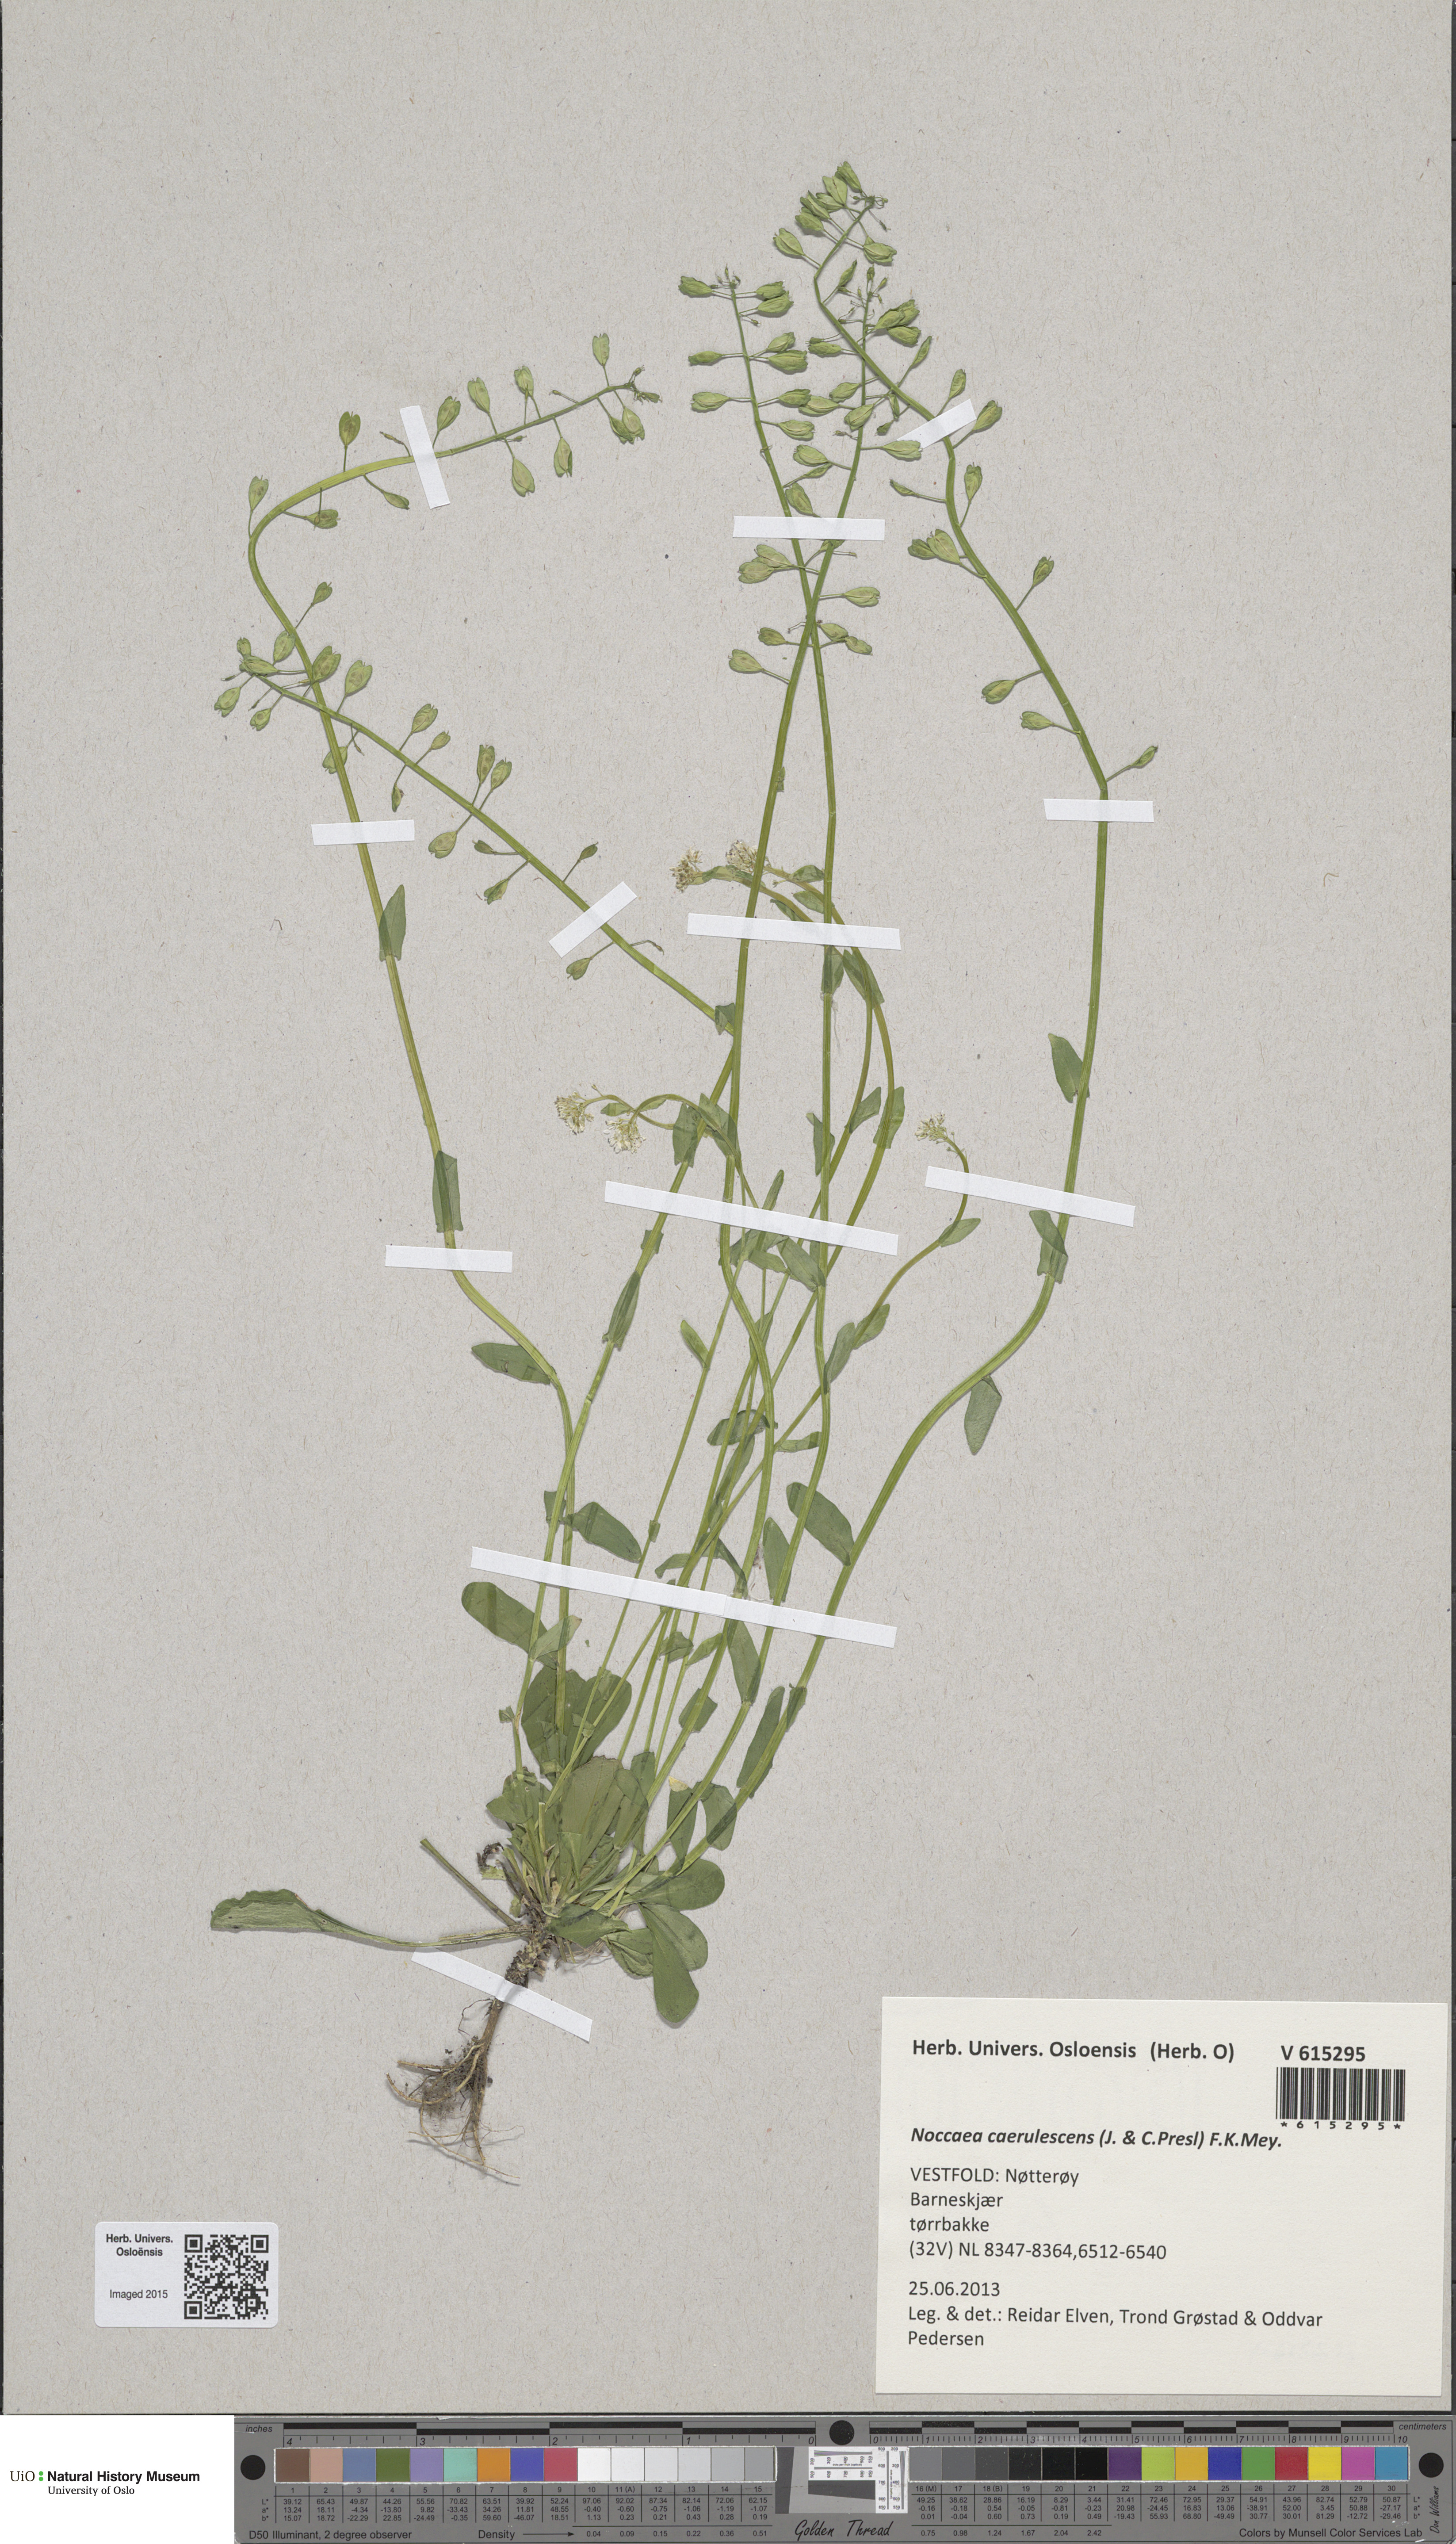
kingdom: Plantae
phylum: Tracheophyta
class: Magnoliopsida
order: Brassicales
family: Brassicaceae
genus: Noccaea
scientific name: Noccaea caerulescens
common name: Alpine pennycress
